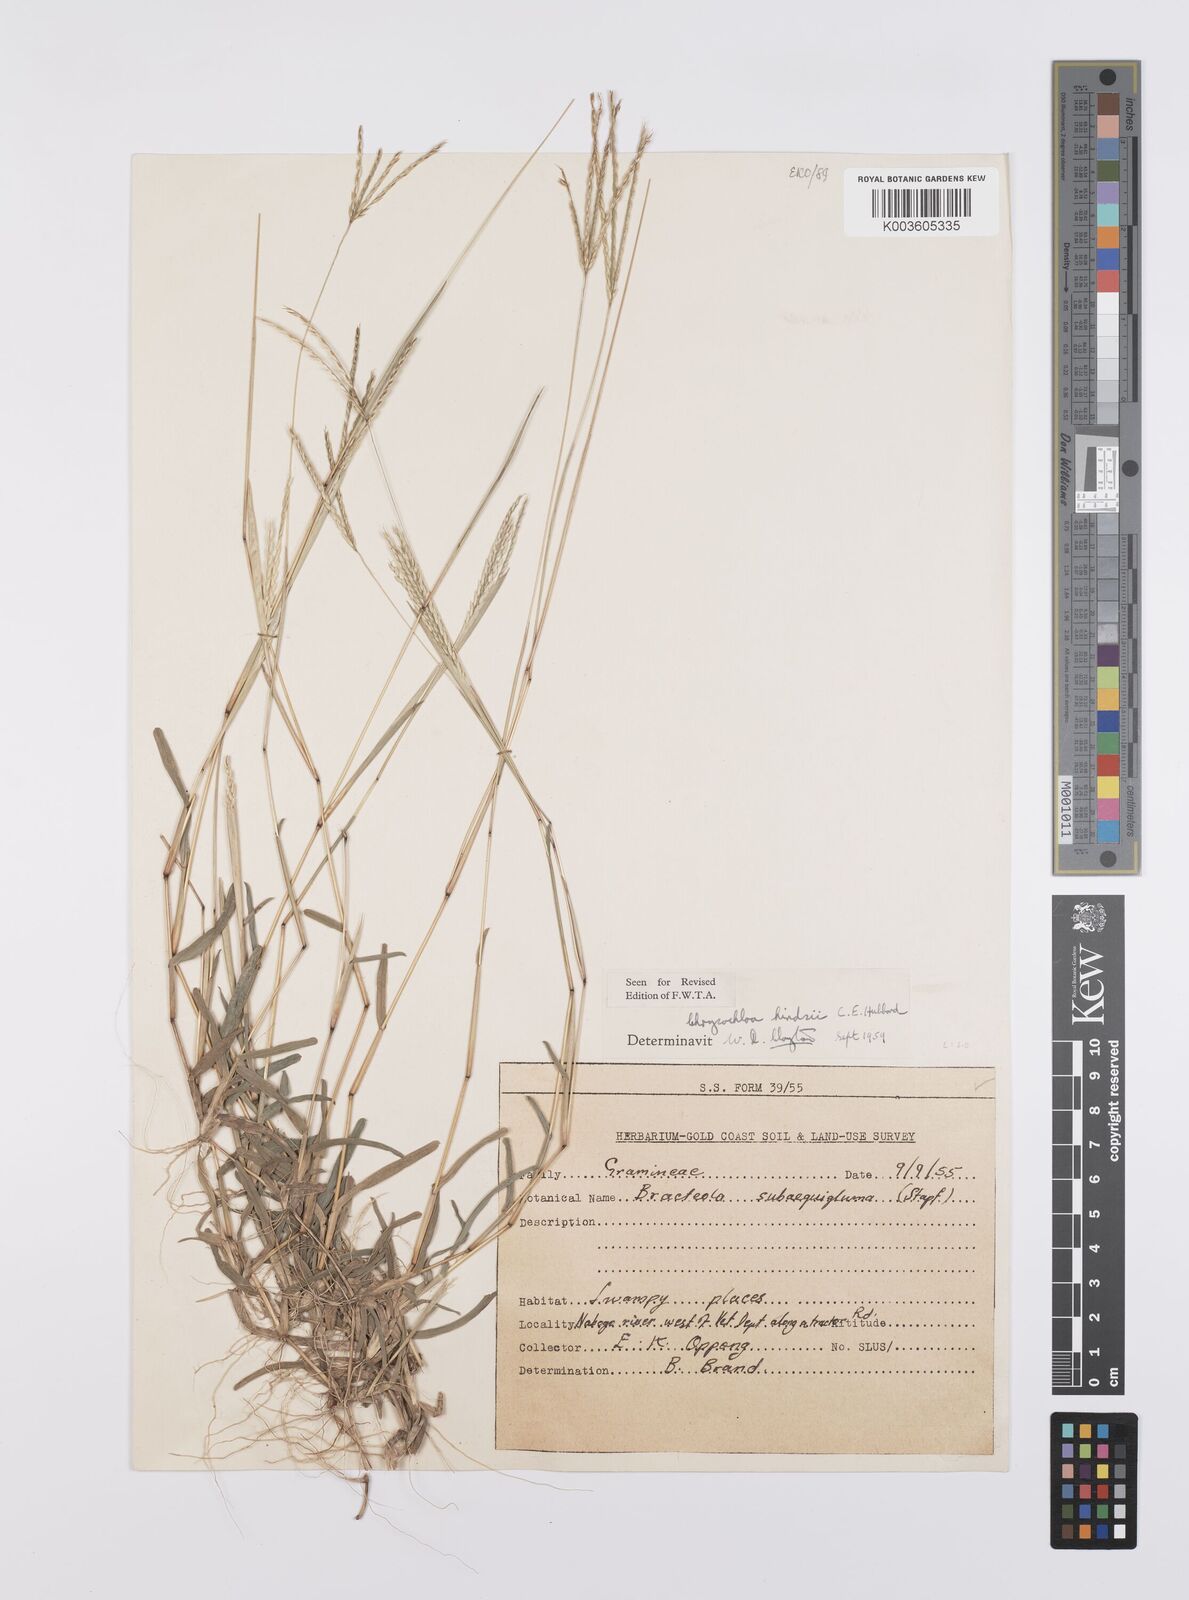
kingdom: Plantae
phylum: Tracheophyta
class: Liliopsida
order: Poales
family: Poaceae
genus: Chrysochloa
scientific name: Chrysochloa hindsii
